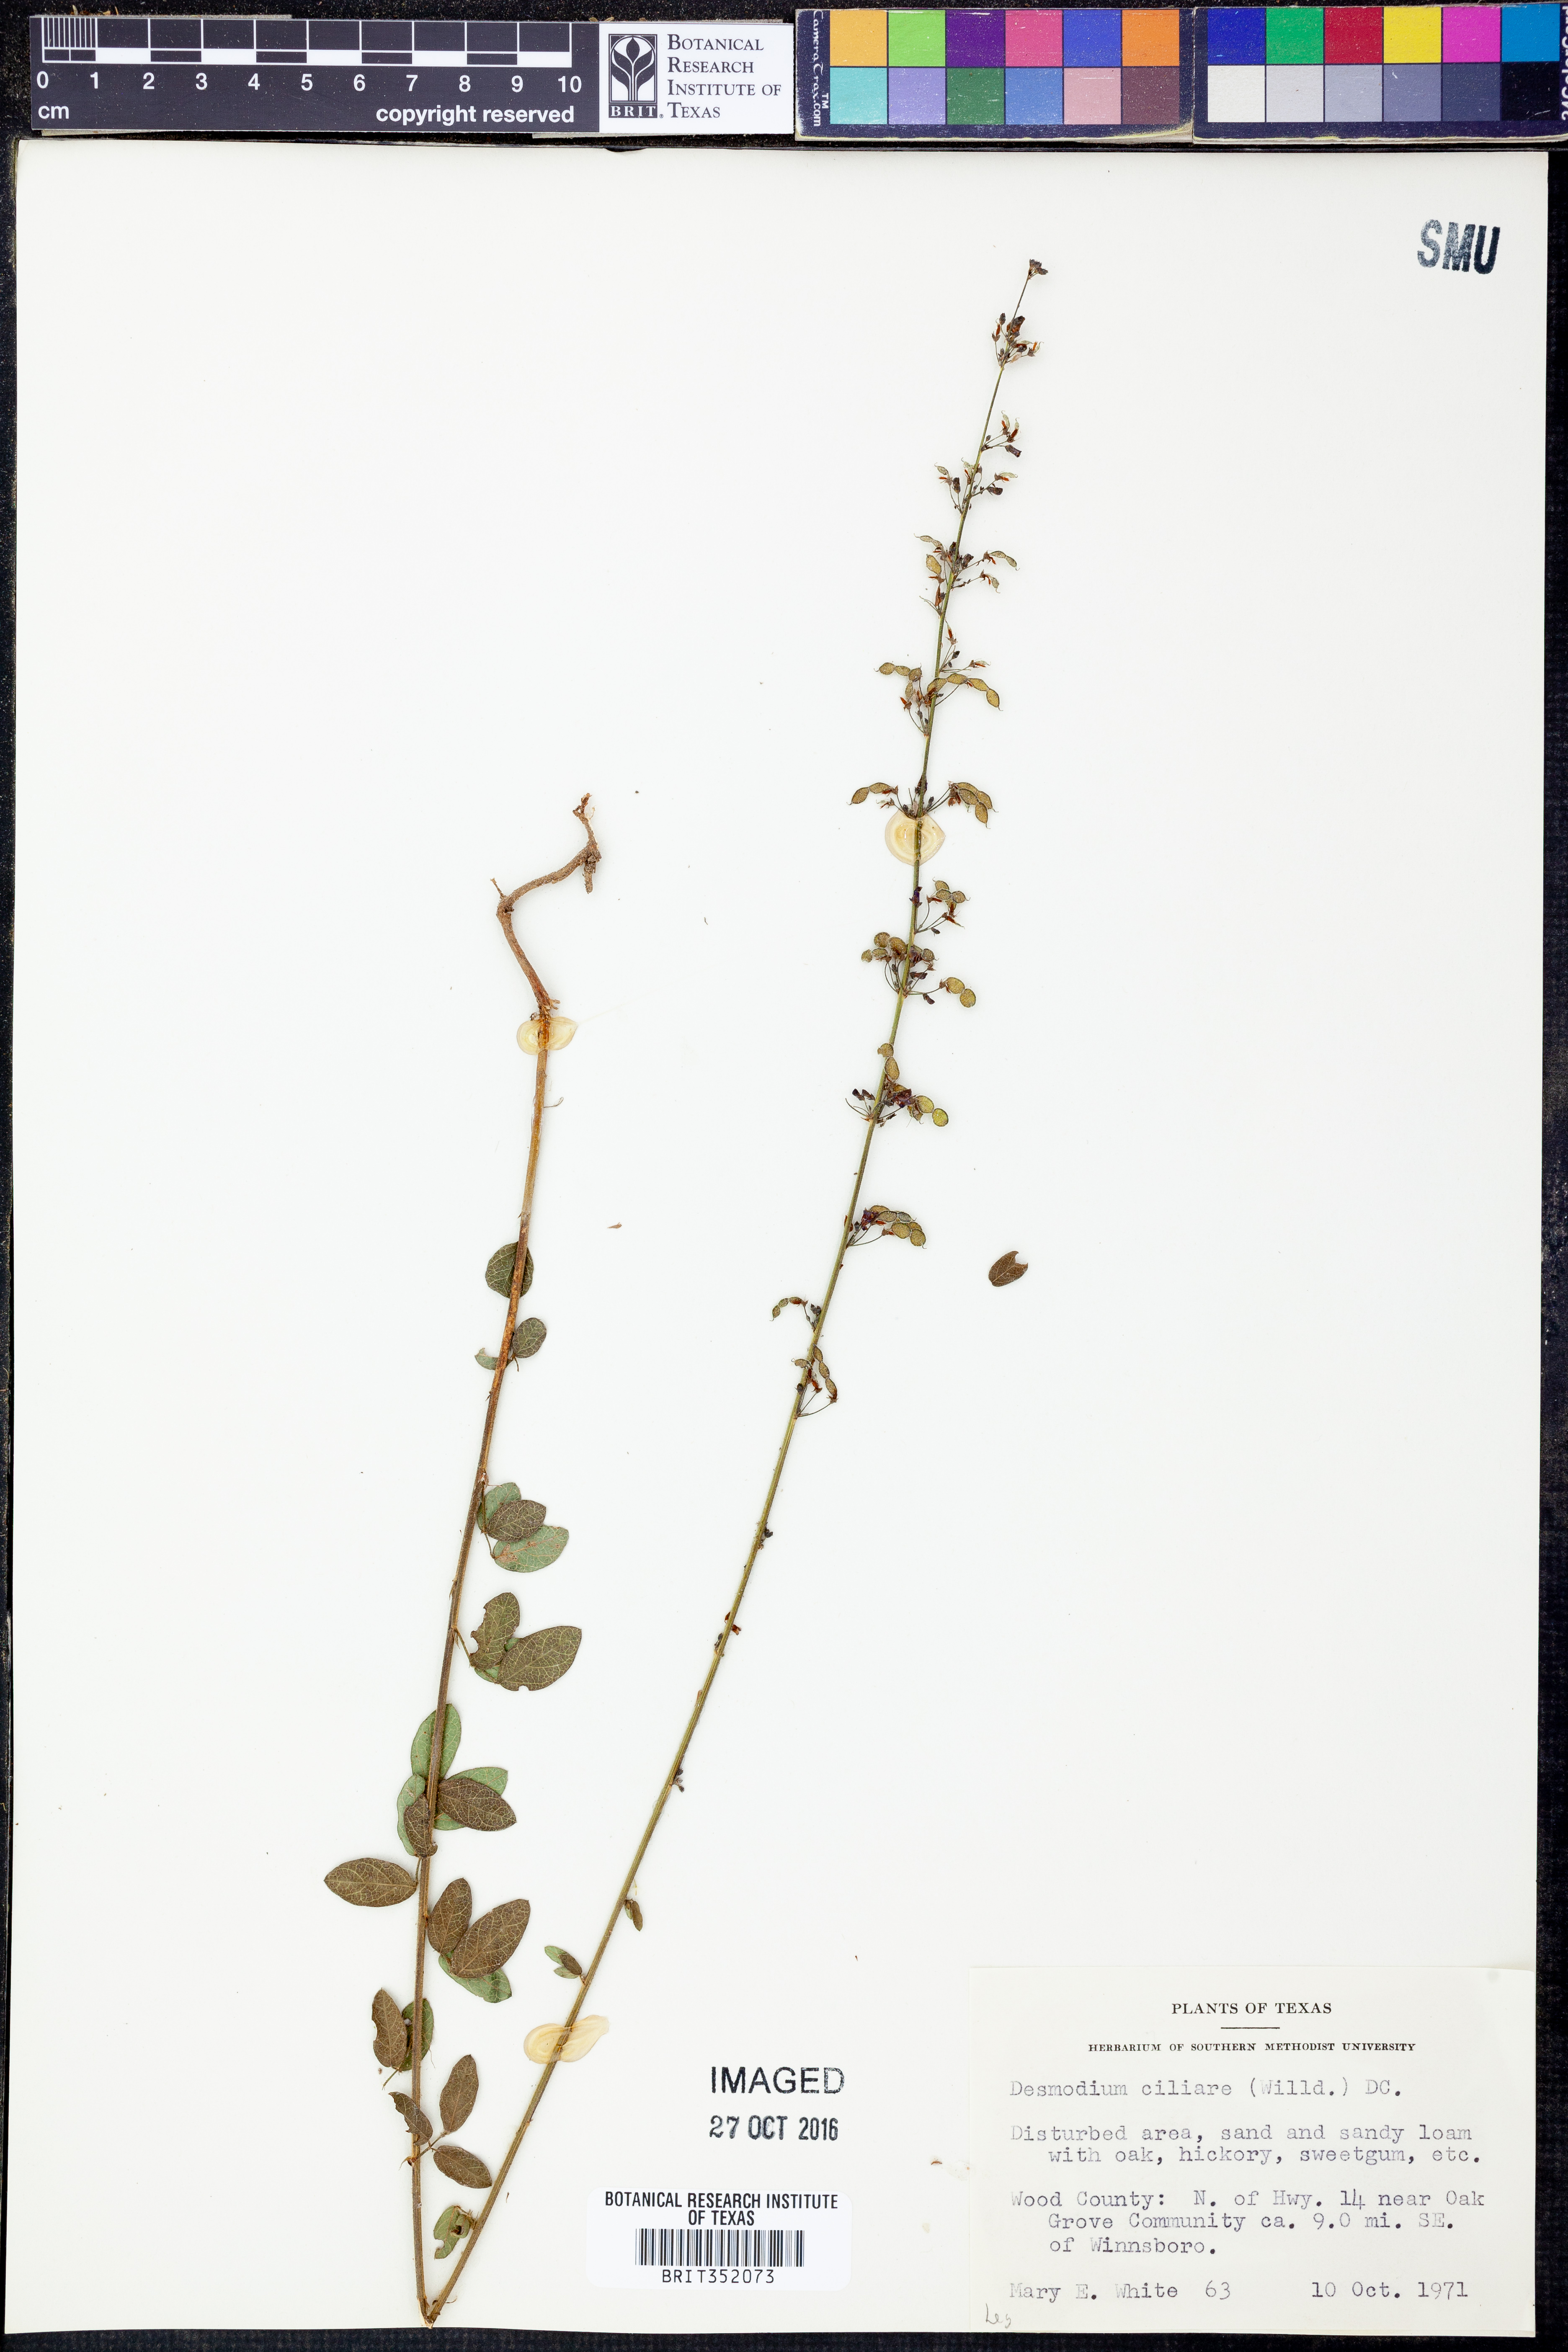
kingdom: Plantae
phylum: Tracheophyta
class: Magnoliopsida
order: Fabales
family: Fabaceae
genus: Desmodium
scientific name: Desmodium ciliare
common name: Hairy small-leaf ticktrefoil
